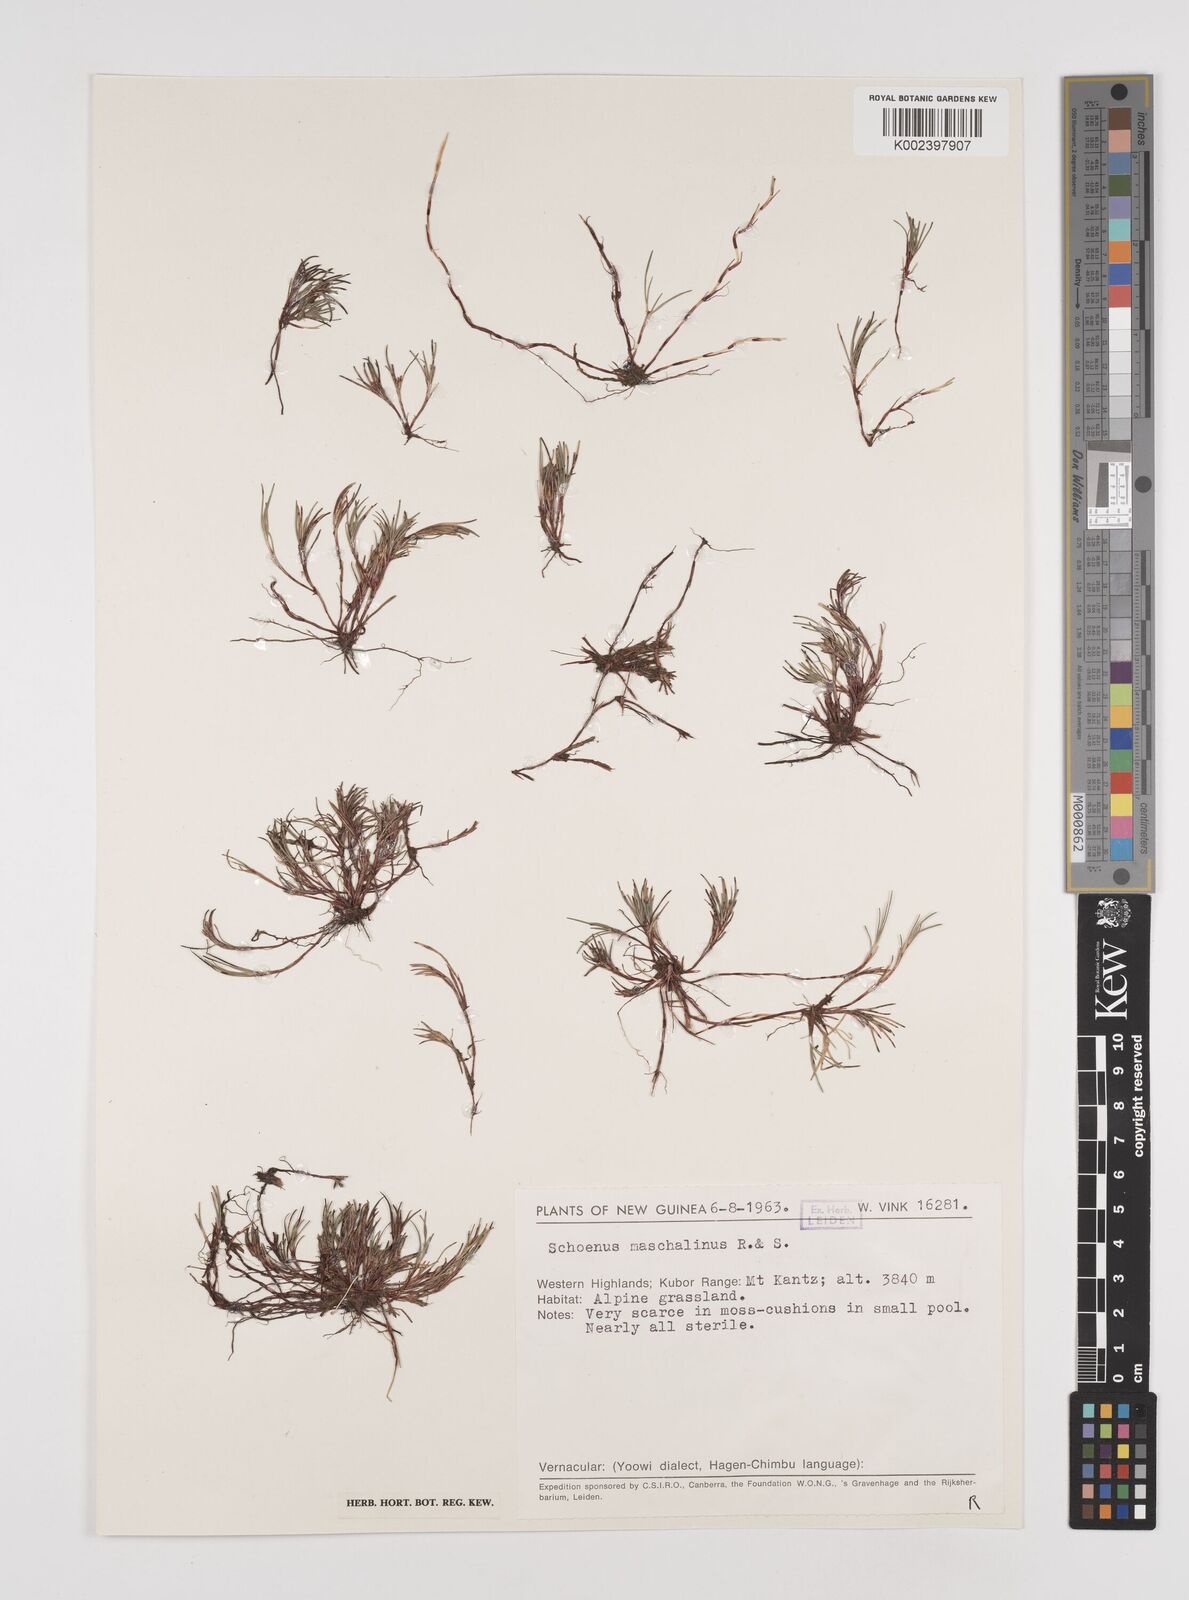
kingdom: Plantae
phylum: Tracheophyta
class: Liliopsida
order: Poales
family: Cyperaceae
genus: Schoenus
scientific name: Schoenus maschalinus
